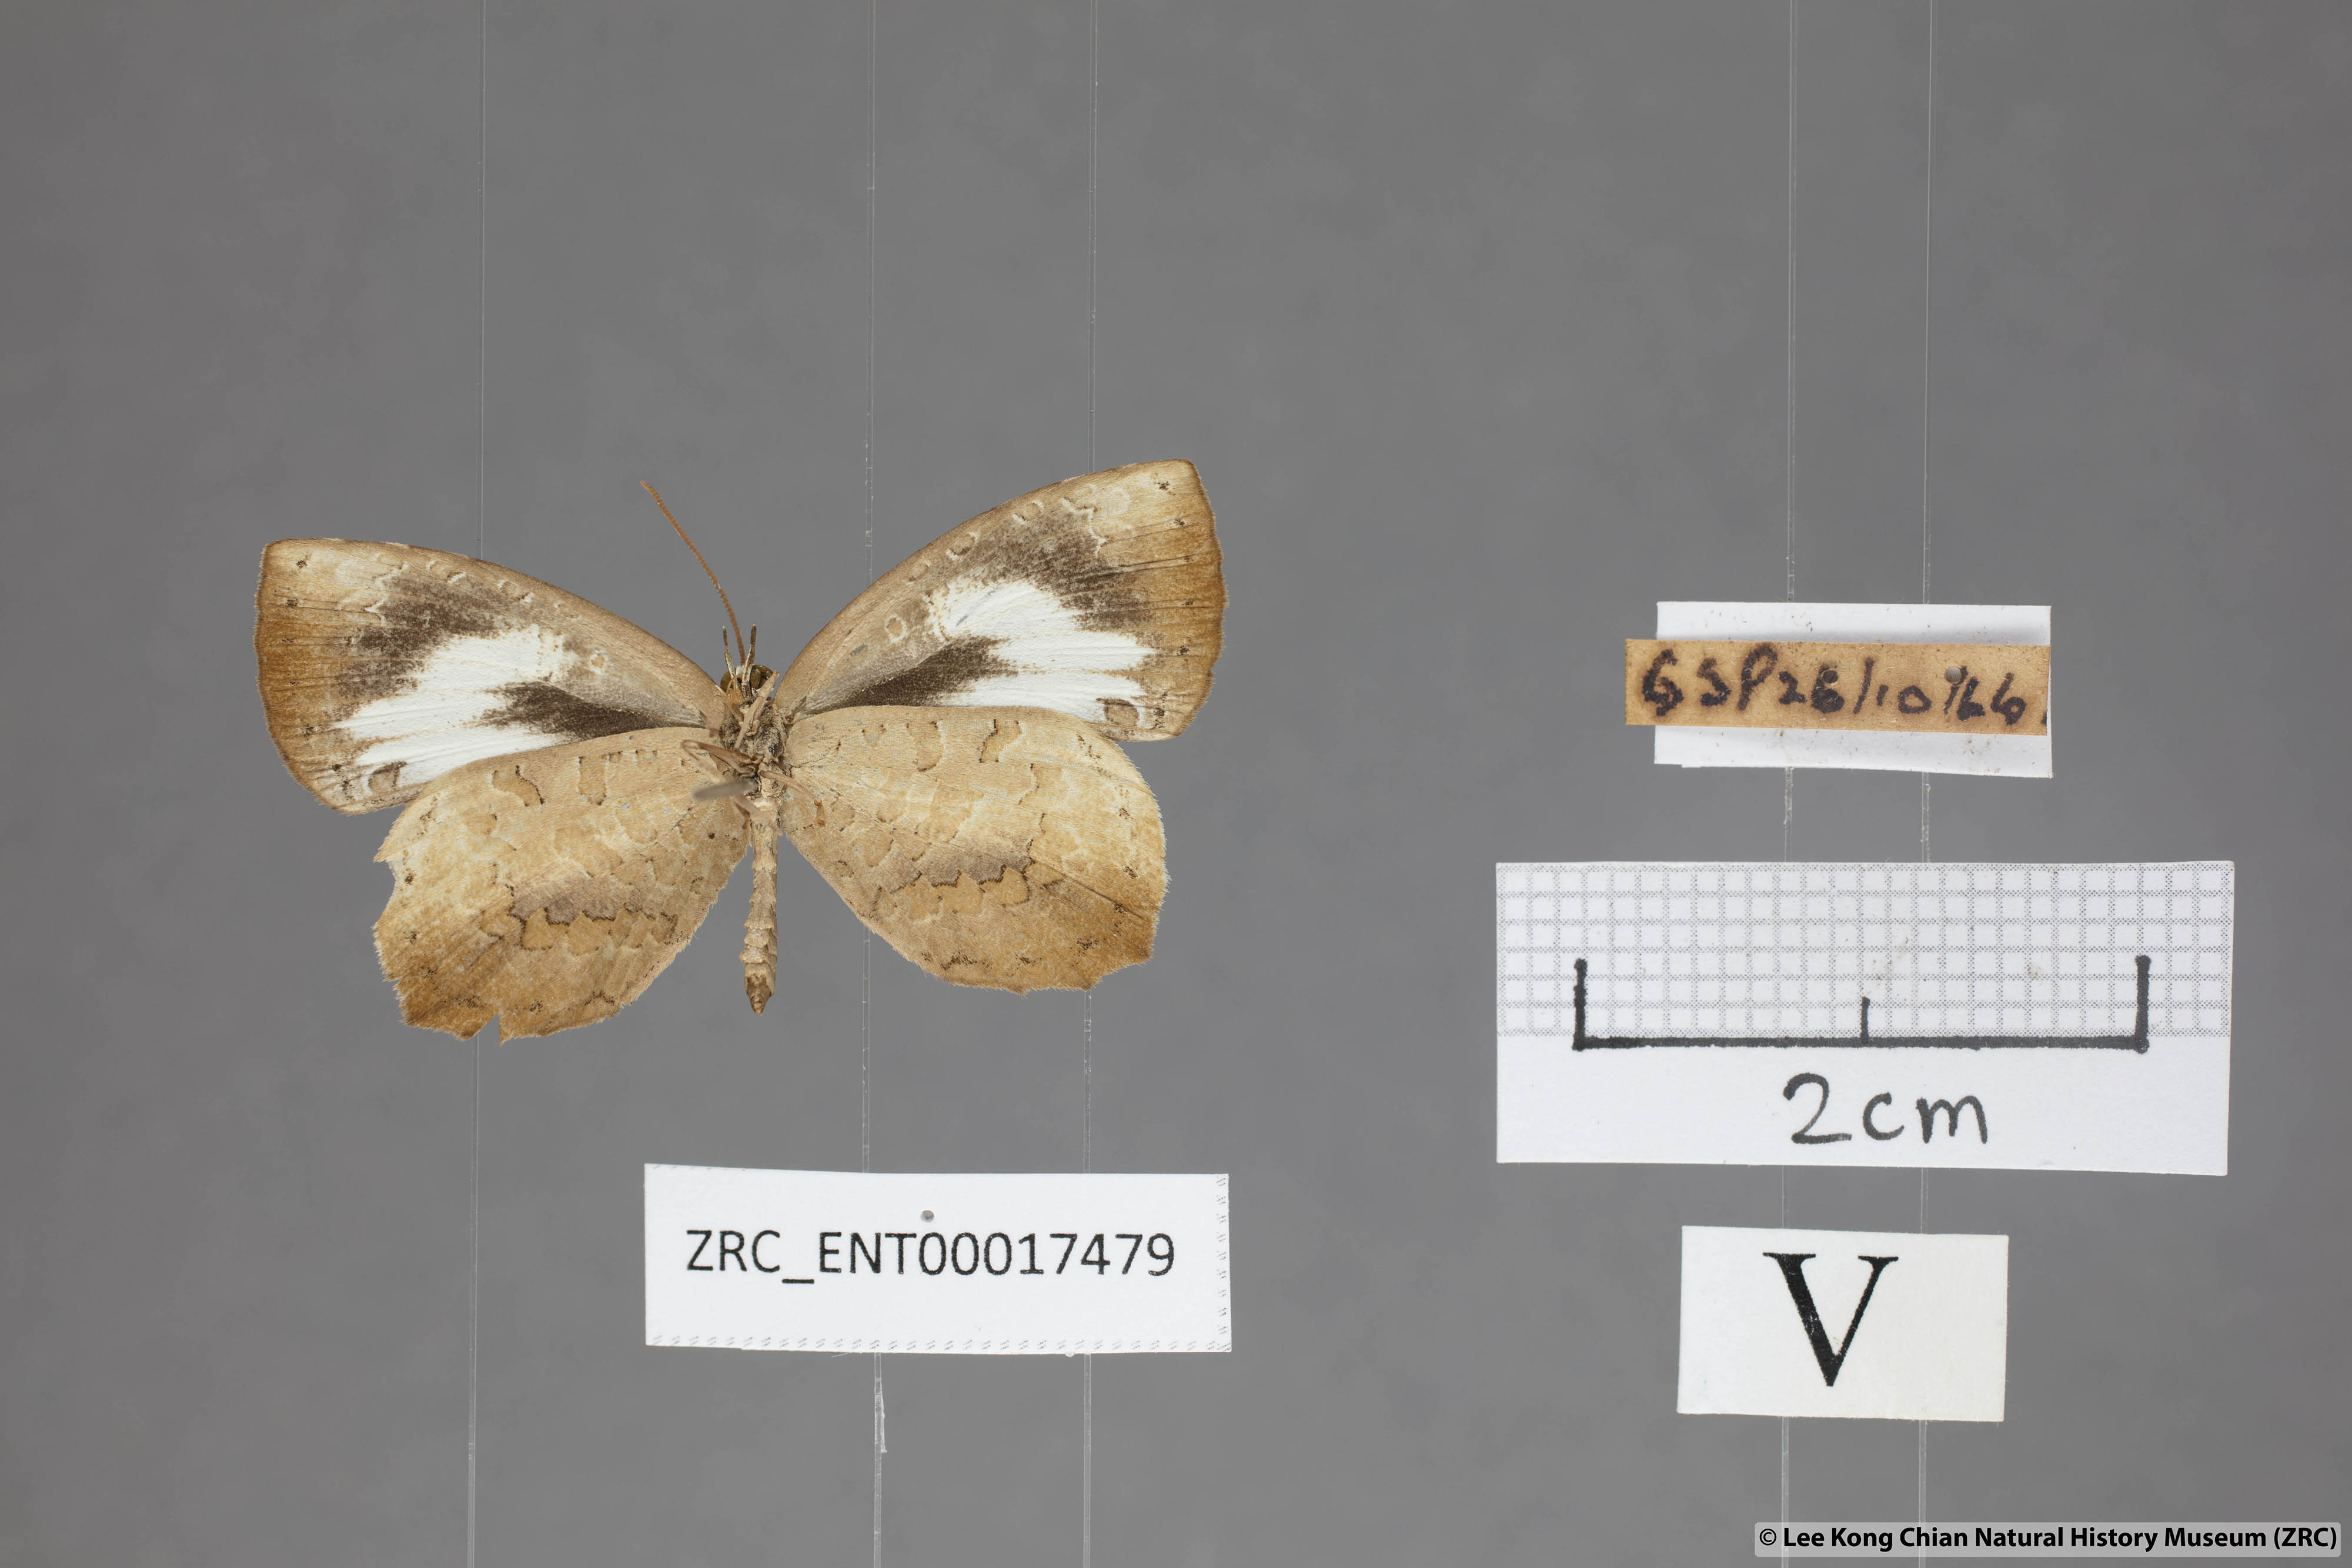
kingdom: Animalia
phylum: Arthropoda
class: Insecta
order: Lepidoptera
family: Lycaenidae
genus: Miletus
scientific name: Miletus symethus
